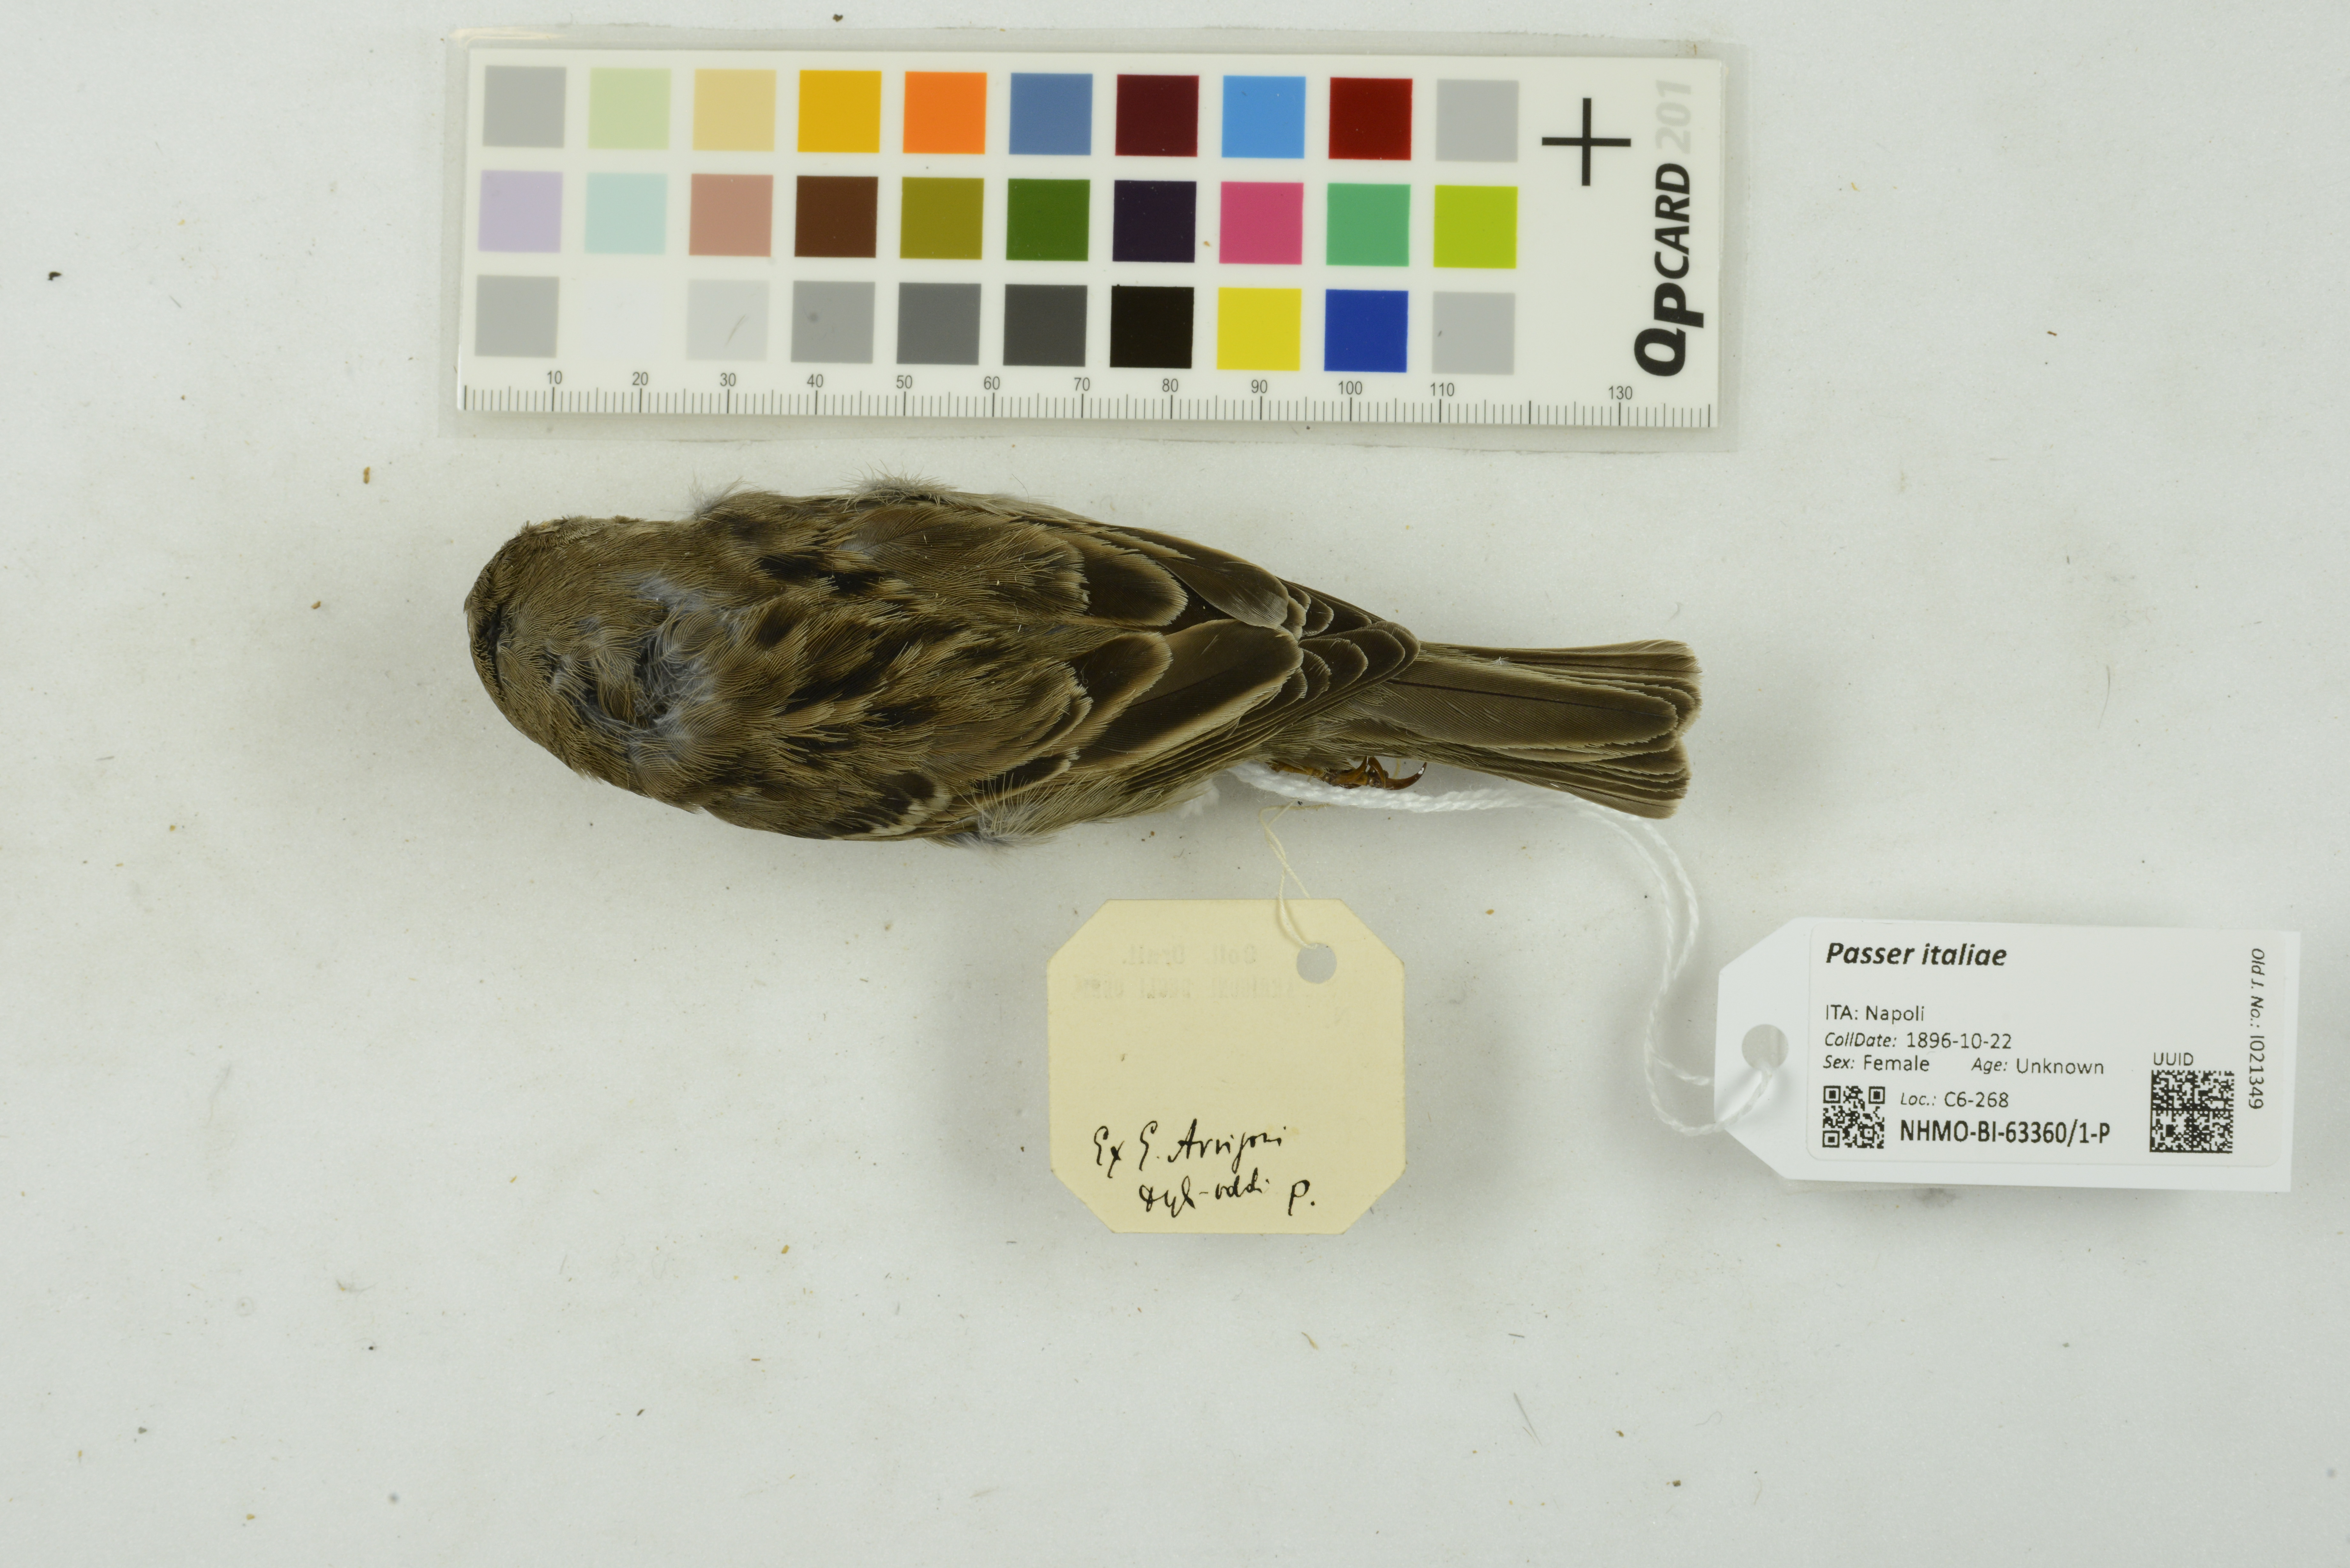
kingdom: Animalia
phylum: Chordata
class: Aves
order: Passeriformes
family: Passeridae
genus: Passer
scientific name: Passer italiae
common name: Italian sparrow
